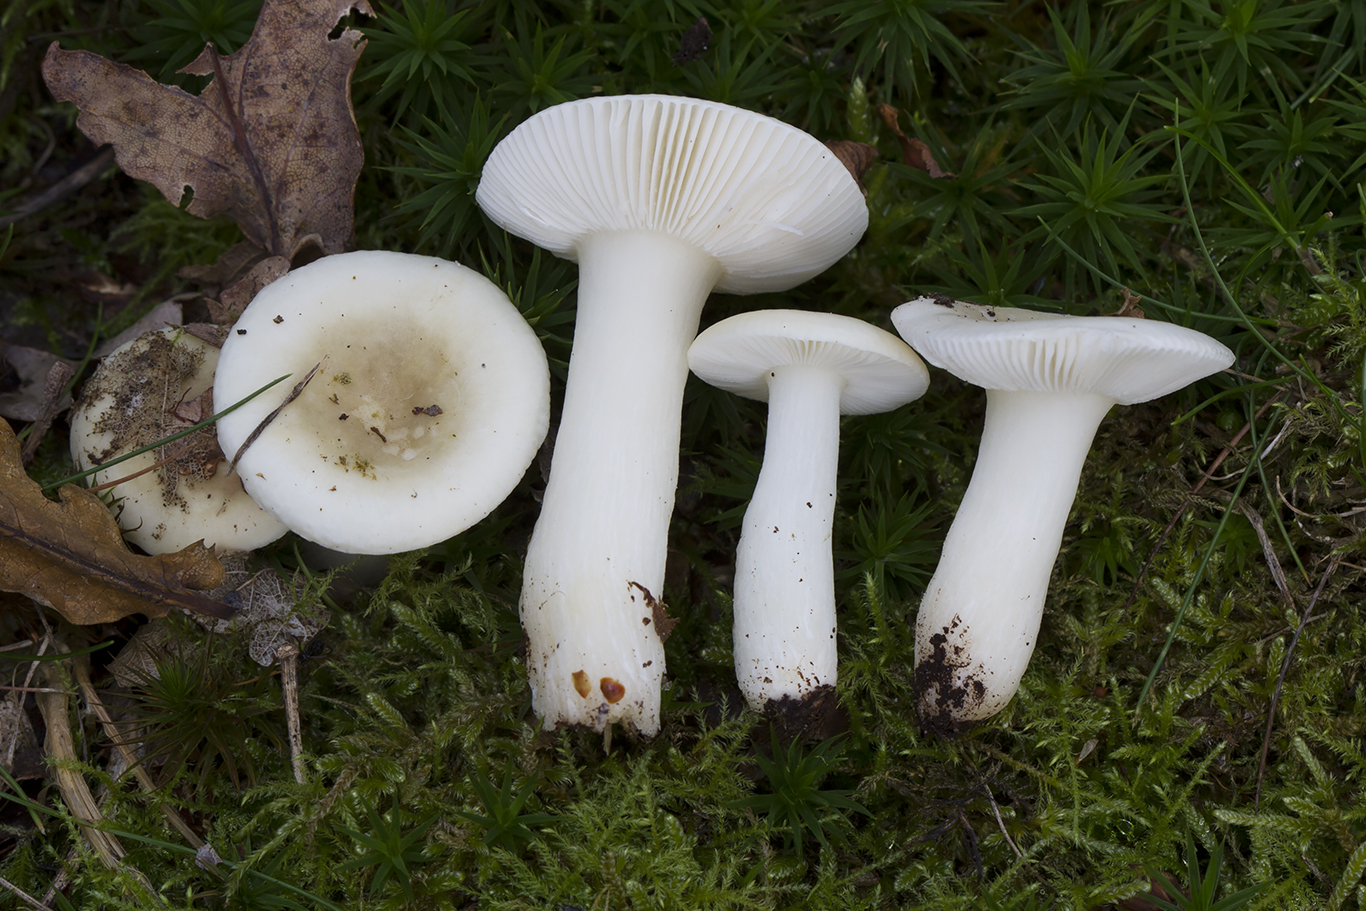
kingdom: Fungi
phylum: Basidiomycota
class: Agaricomycetes
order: Russulales
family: Russulaceae
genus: Russula
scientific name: Russula fragilis
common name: Fragile brittlegill
